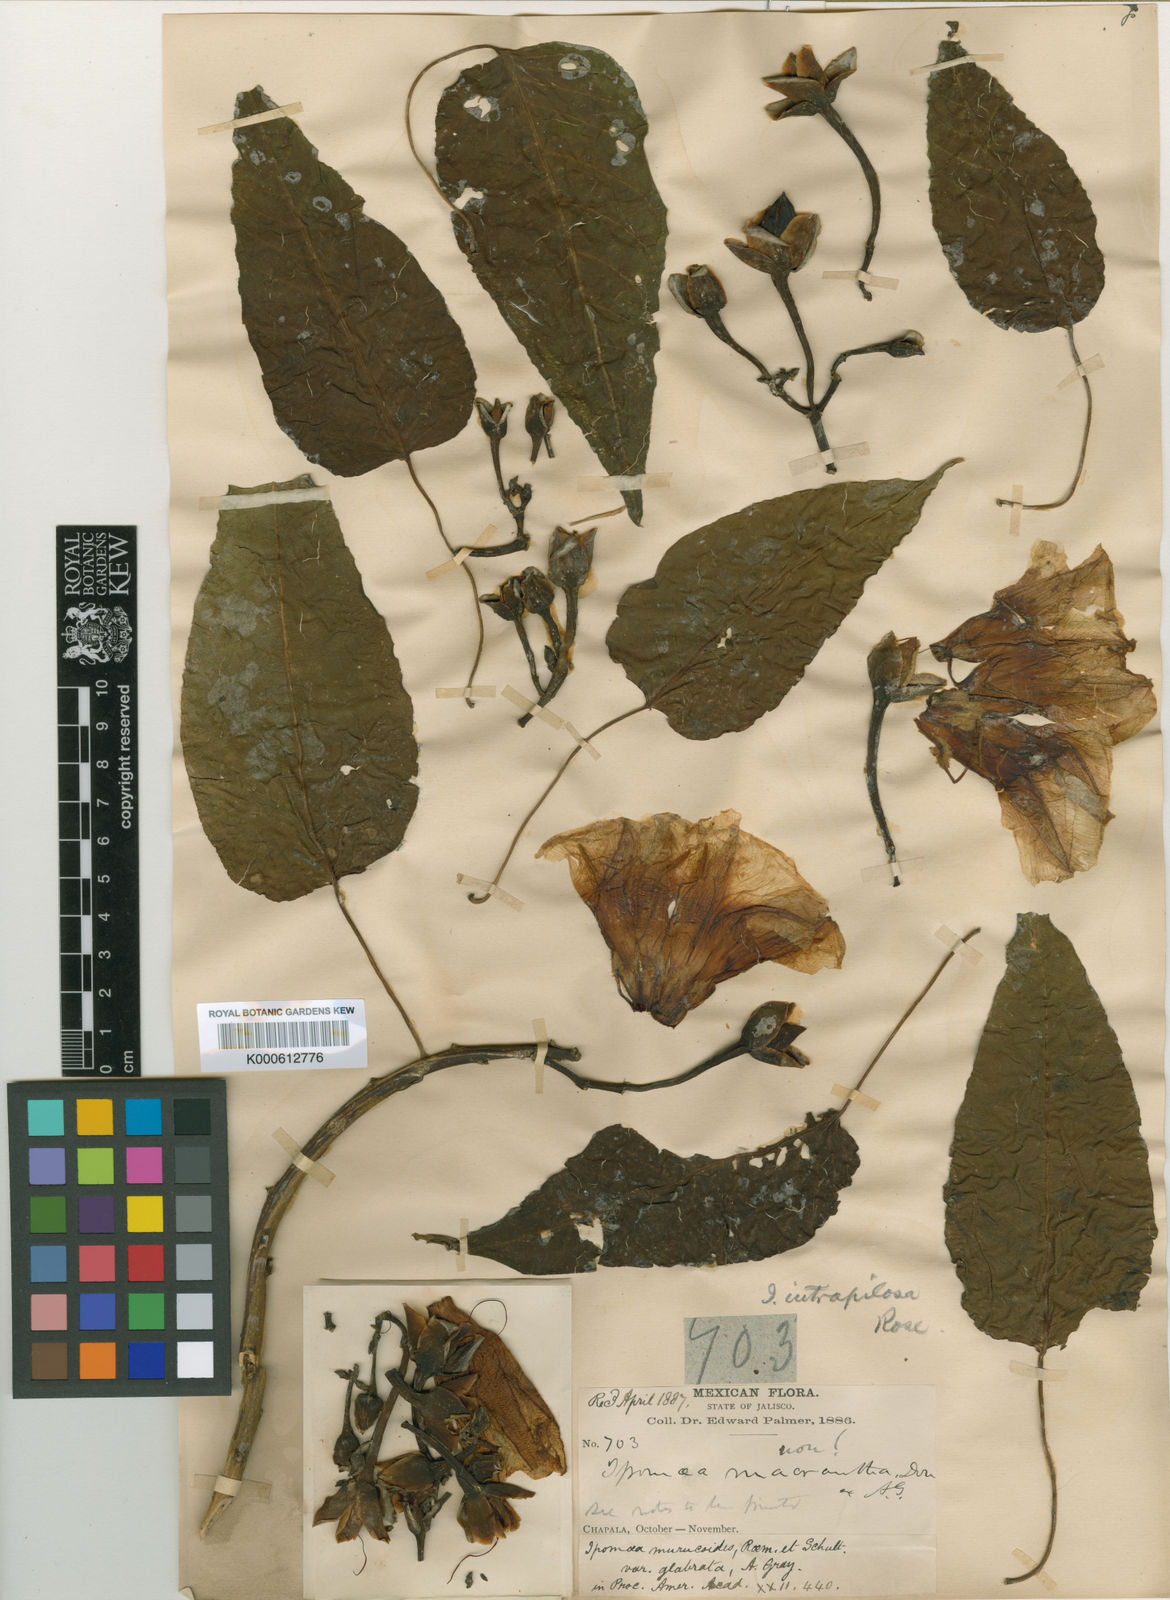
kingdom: Plantae
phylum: Tracheophyta
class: Magnoliopsida
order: Solanales
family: Convolvulaceae
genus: Ipomoea
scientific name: Ipomoea intrapilosa
